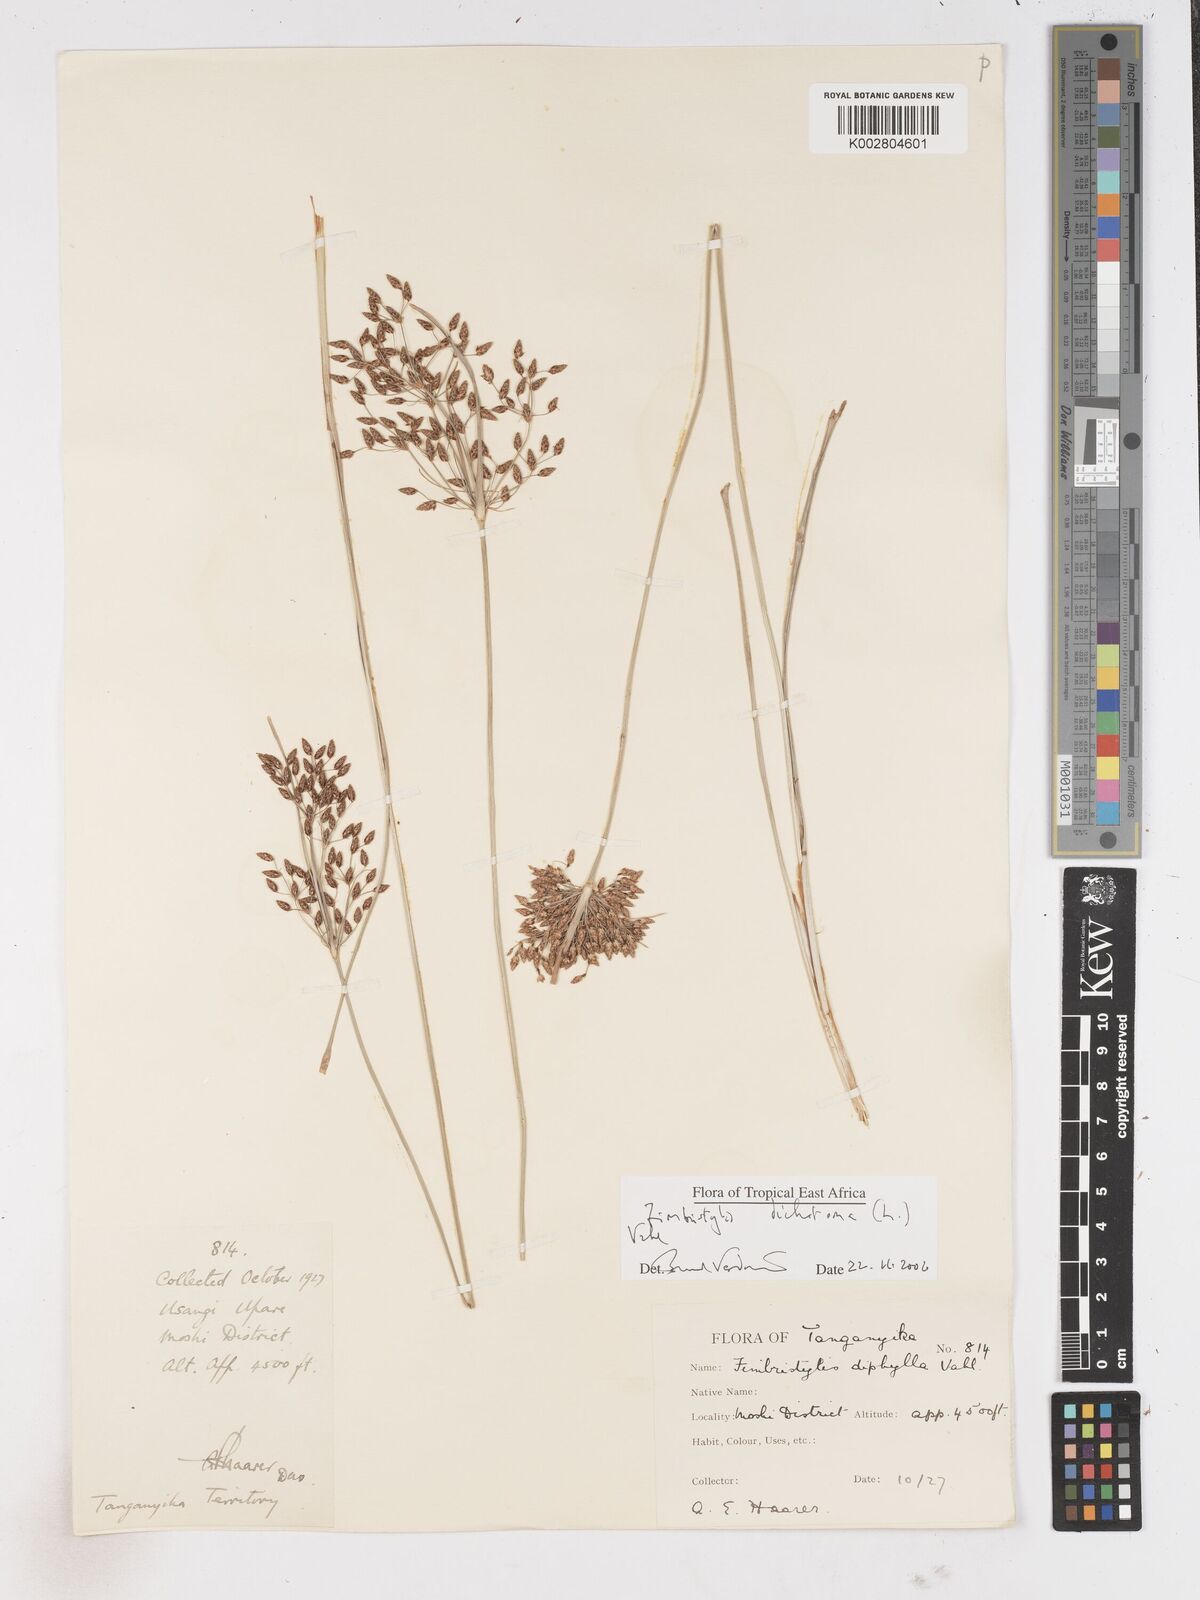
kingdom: Plantae
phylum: Tracheophyta
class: Liliopsida
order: Poales
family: Cyperaceae
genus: Fimbristylis
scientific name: Fimbristylis dichotoma
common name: Forked fimbry
